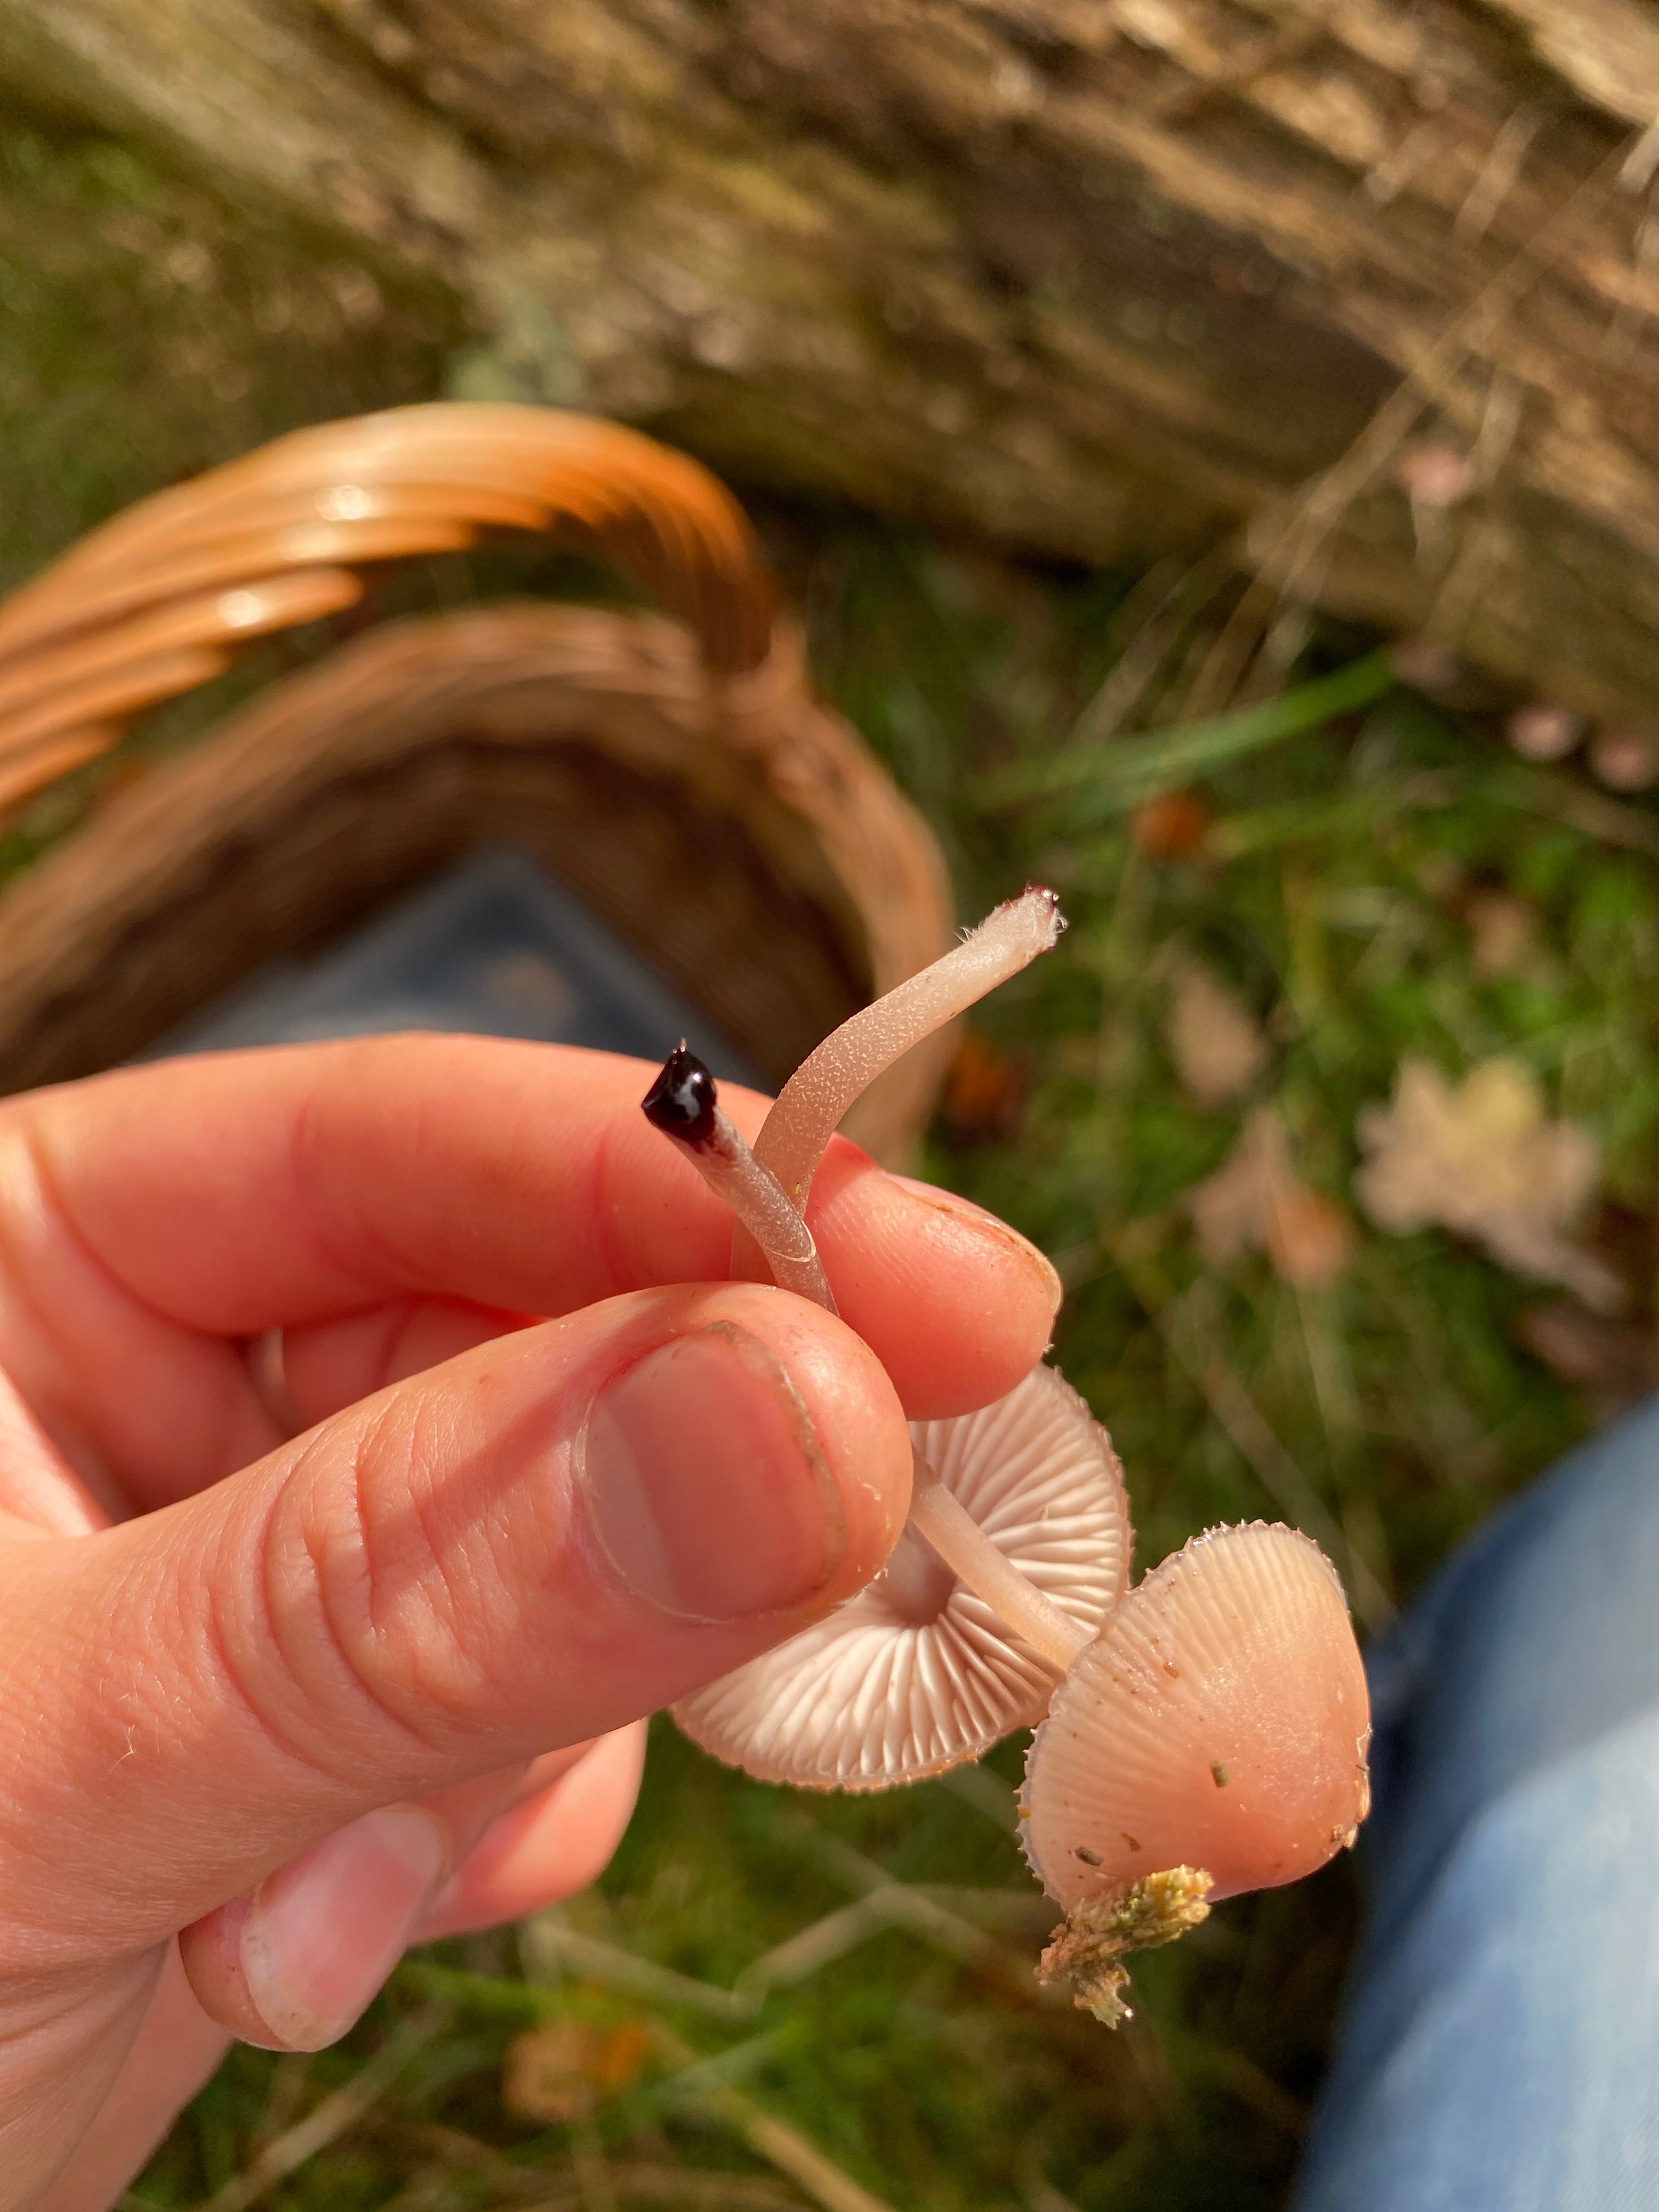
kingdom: Fungi
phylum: Basidiomycota
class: Agaricomycetes
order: Agaricales
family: Mycenaceae
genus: Mycena
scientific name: Mycena haematopus
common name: blødende huesvamp
